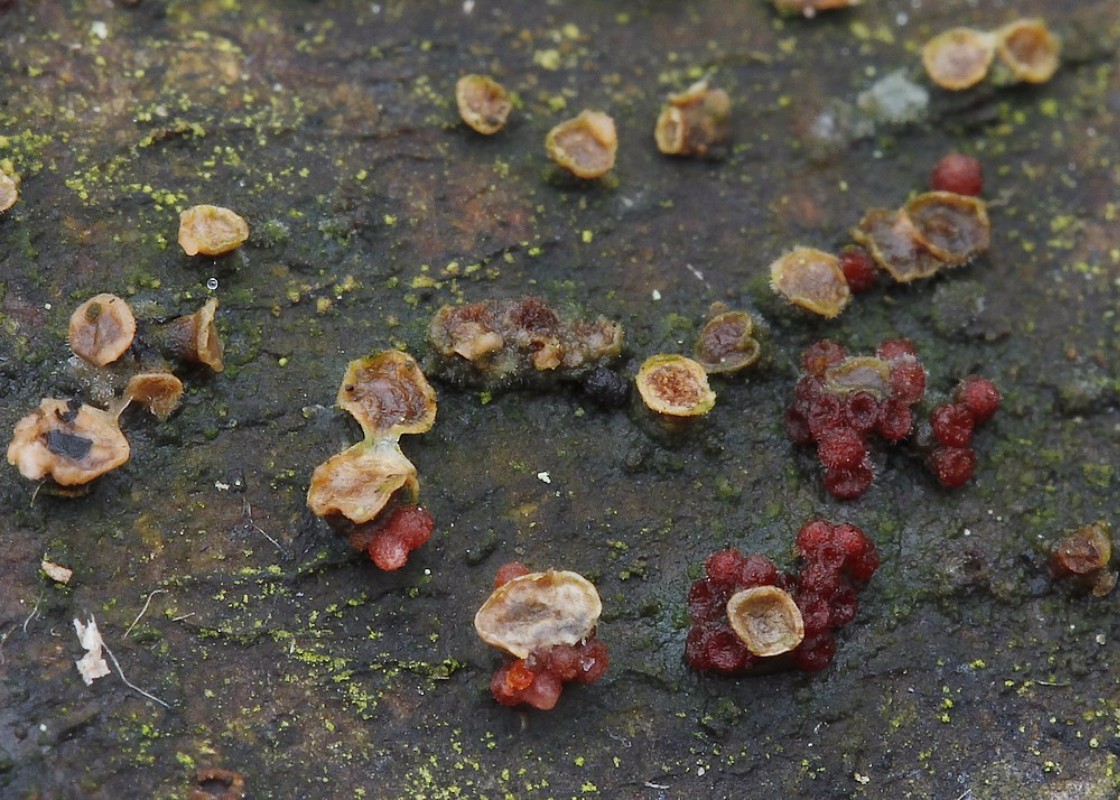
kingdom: Fungi
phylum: Ascomycota
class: Sordariomycetes
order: Hypocreales
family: Nectriaceae
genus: Nectria
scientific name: Nectria cinnabarina
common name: almindelig cinnobersvamp
